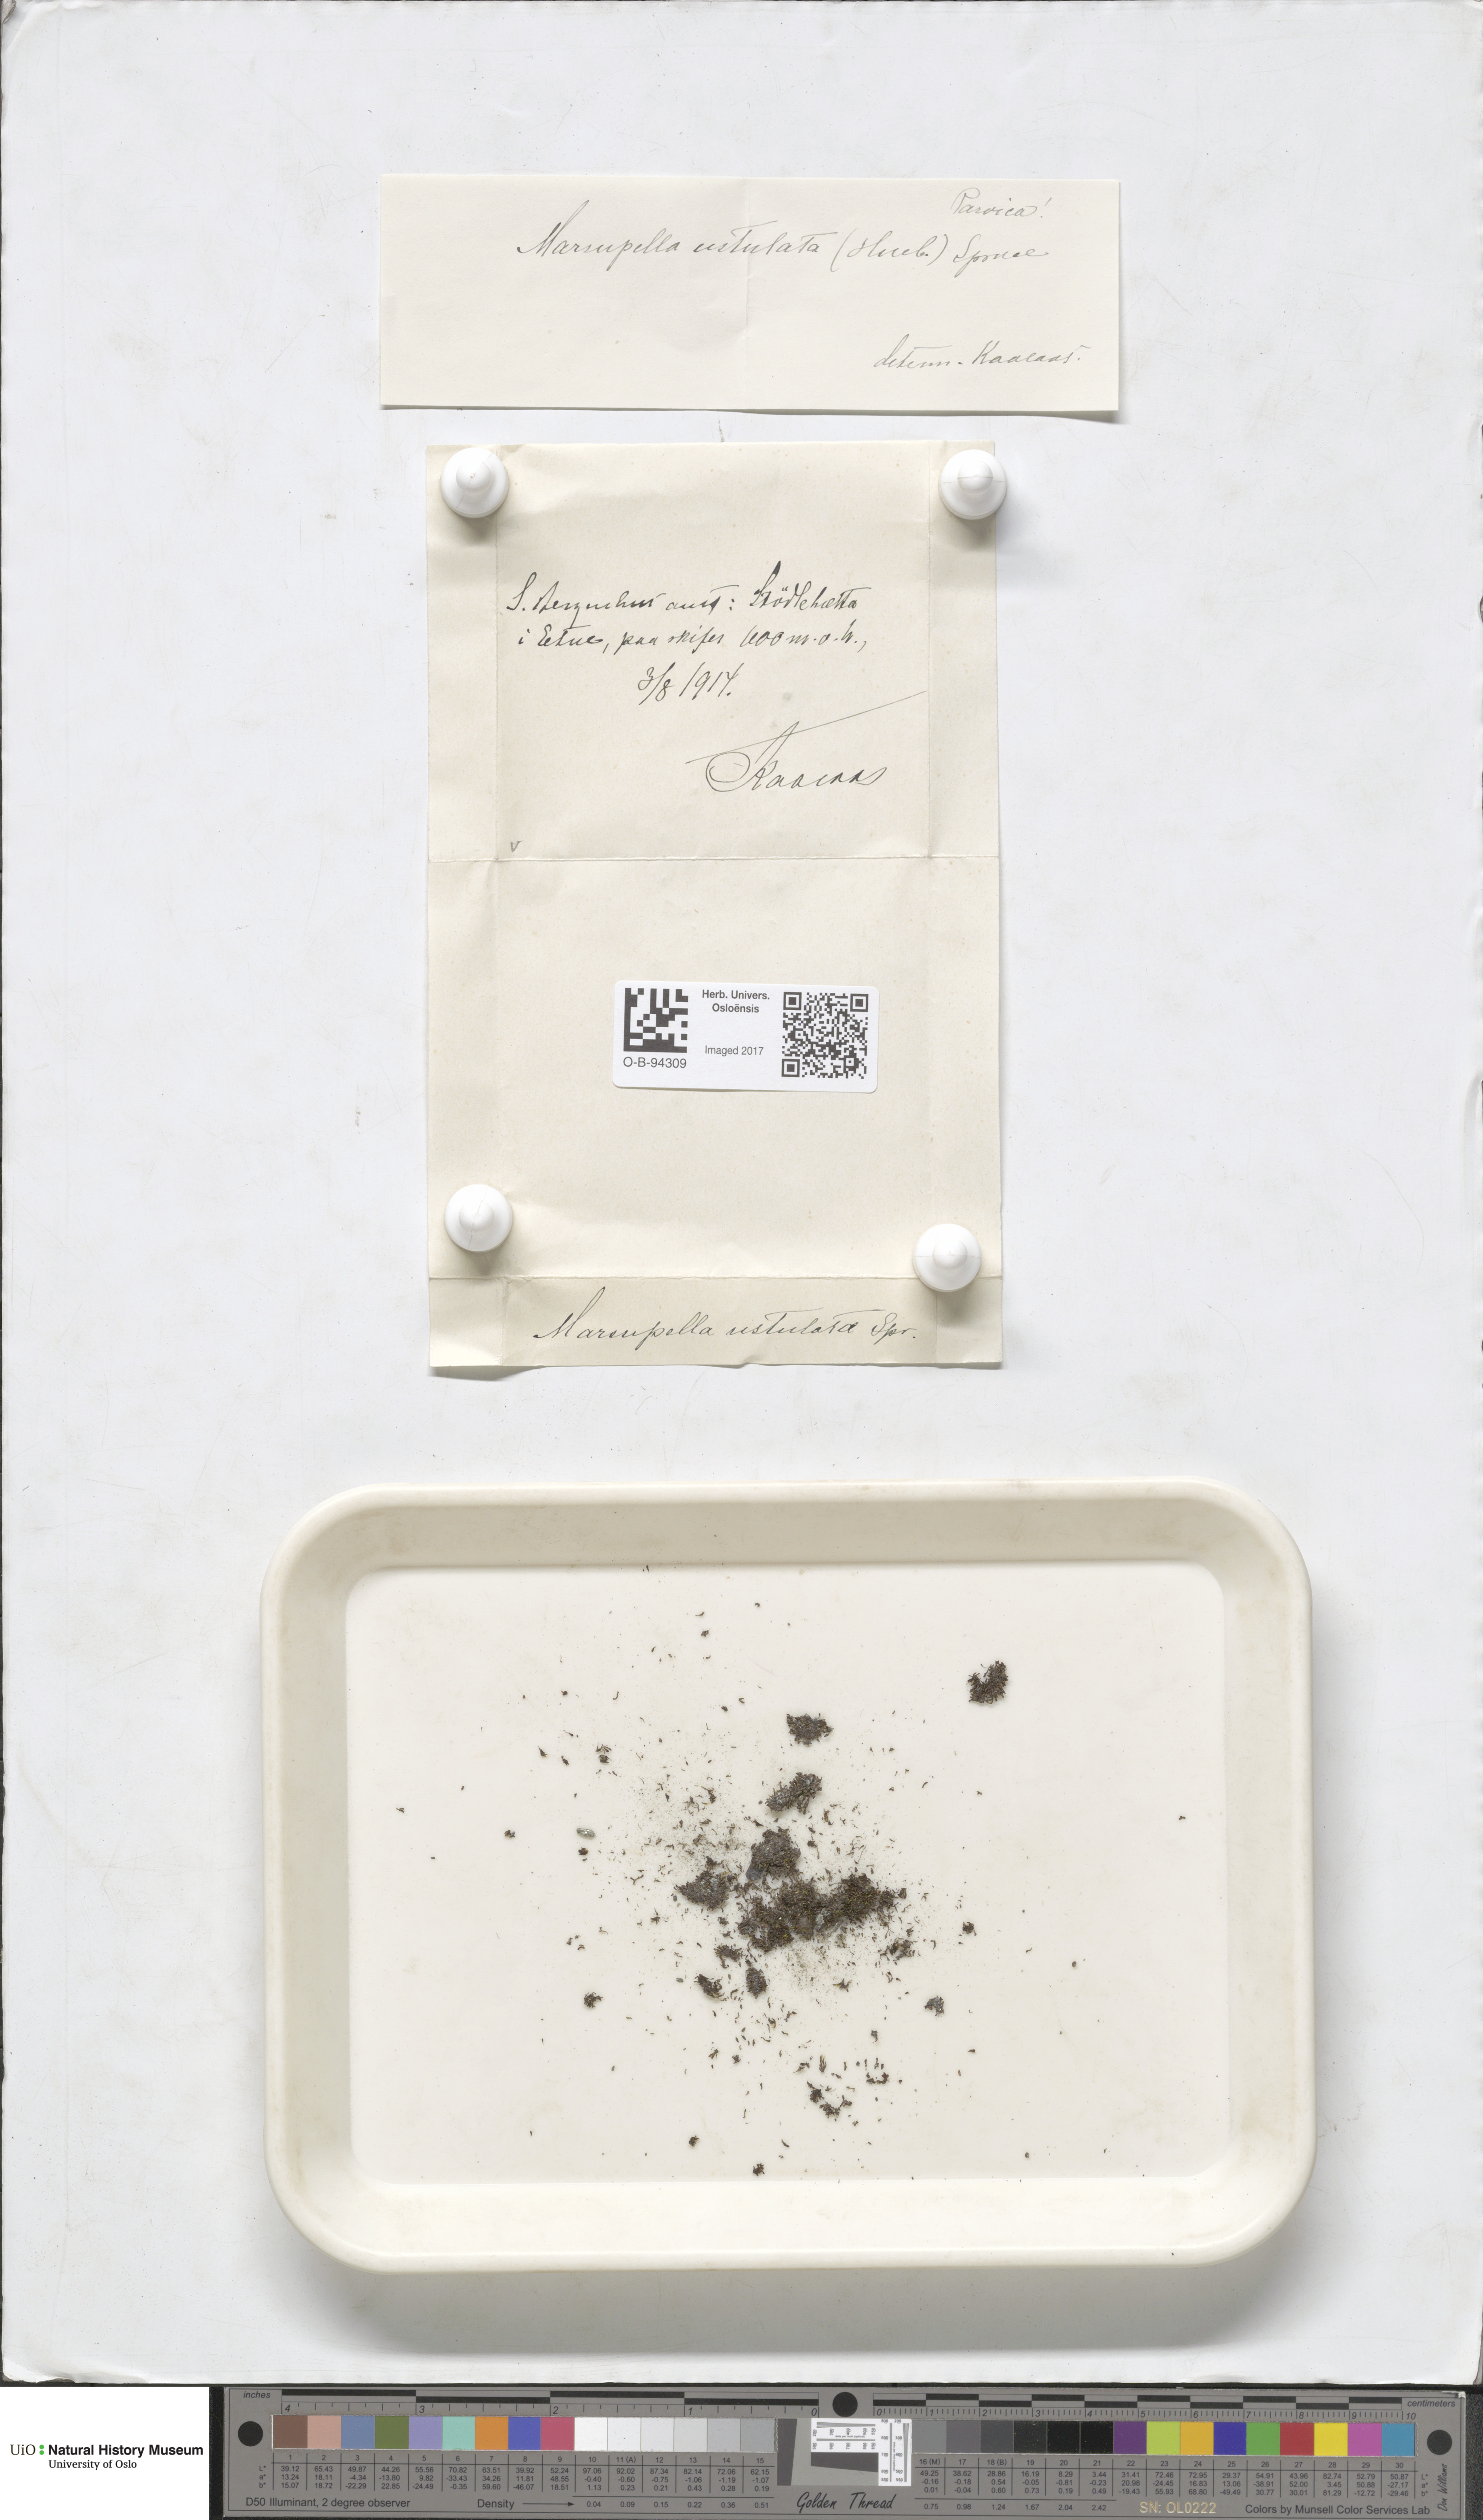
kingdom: Plantae
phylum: Marchantiophyta
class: Jungermanniopsida
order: Jungermanniales
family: Gymnomitriaceae
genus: Marsupella
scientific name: Marsupella sprucei
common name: Spruce s rustwort
